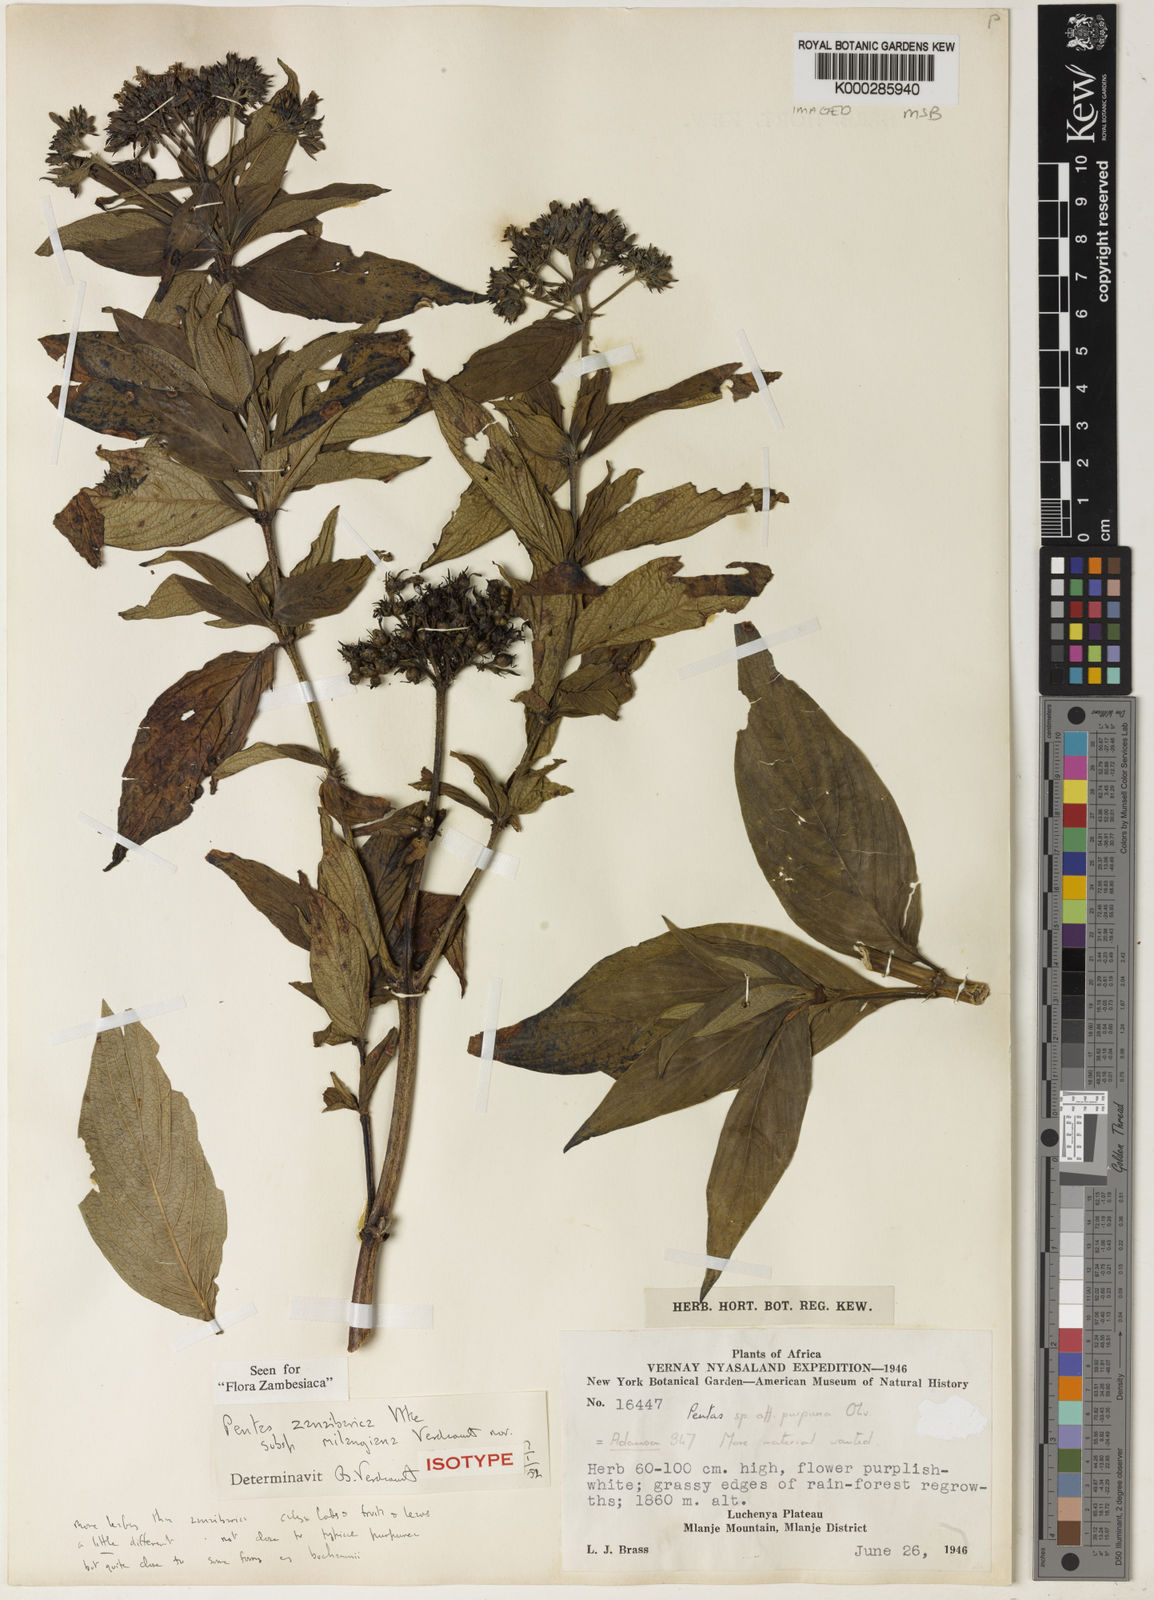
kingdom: Plantae
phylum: Tracheophyta
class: Magnoliopsida
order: Gentianales
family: Rubiaceae
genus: Pentas
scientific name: Pentas zanzibarica
